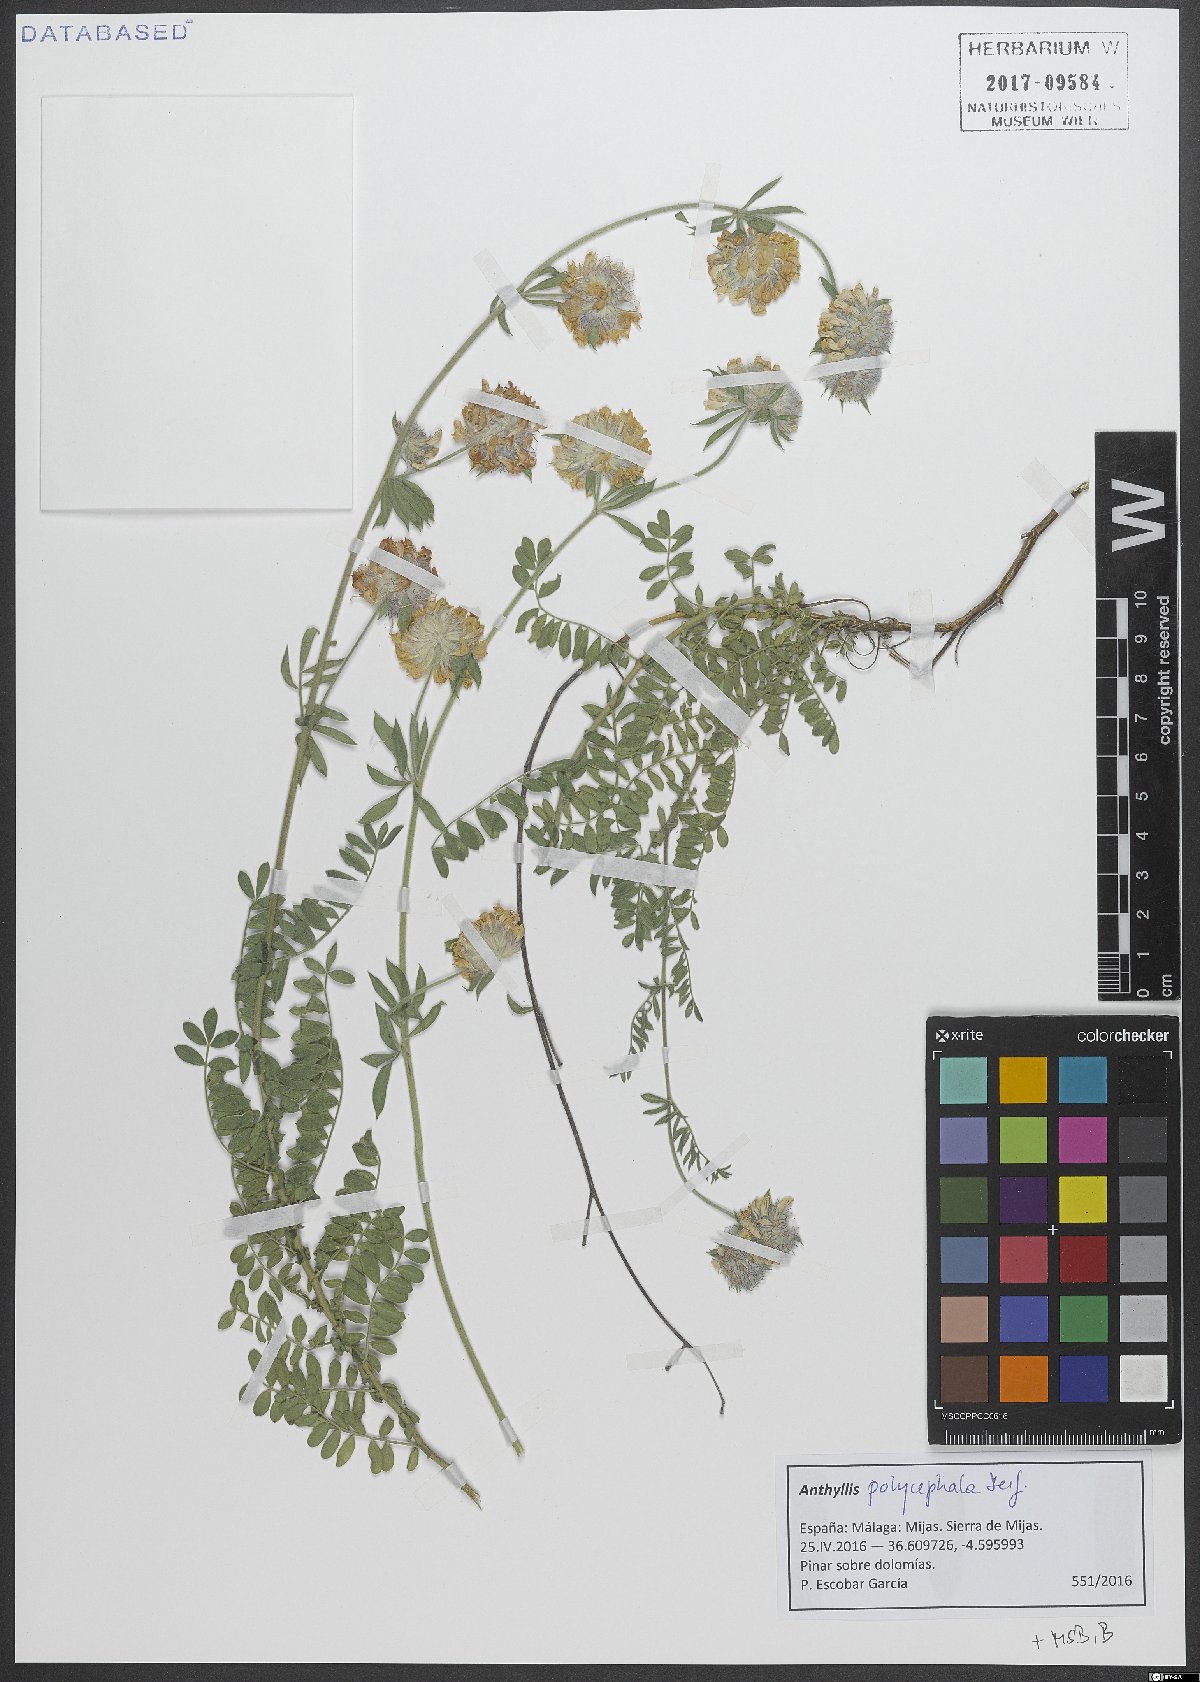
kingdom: Plantae
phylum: Tracheophyta
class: Magnoliopsida
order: Fabales
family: Fabaceae
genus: Anthyllis
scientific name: Anthyllis polycephala
